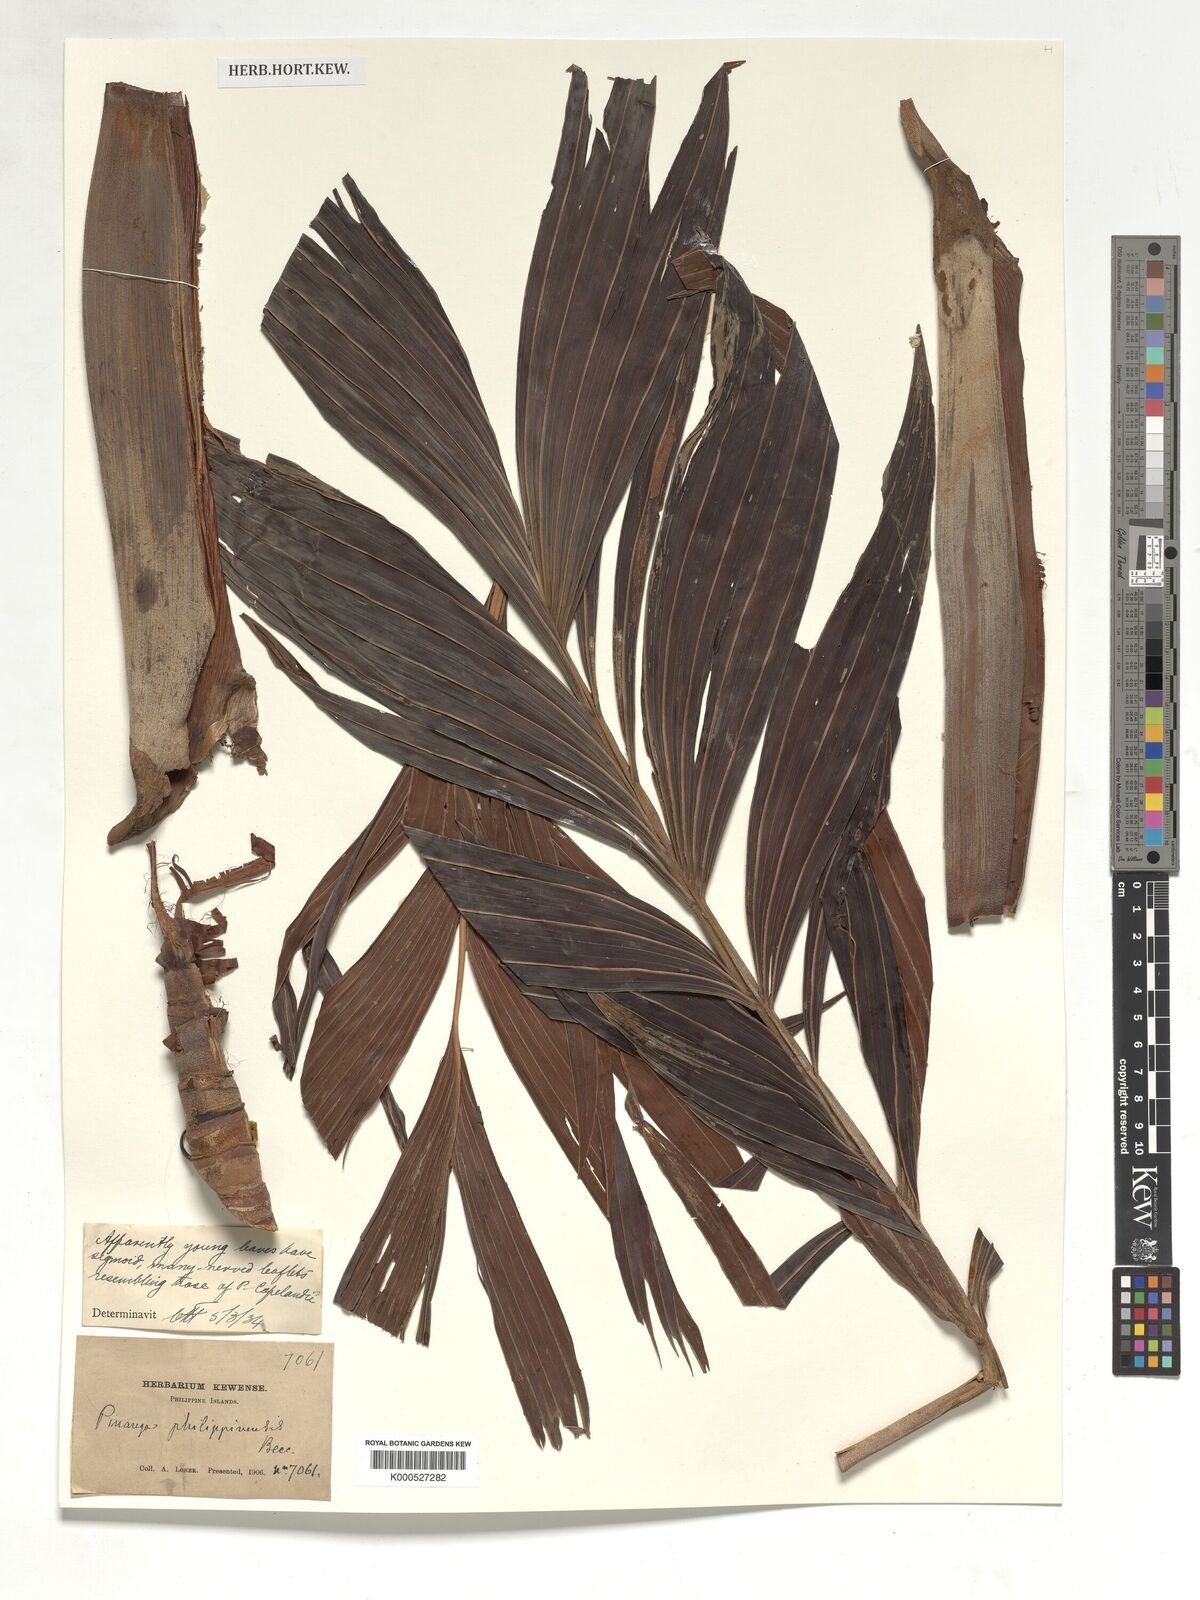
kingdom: Plantae
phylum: Tracheophyta
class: Liliopsida
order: Arecales
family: Arecaceae
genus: Pinanga
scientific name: Pinanga copelandii
